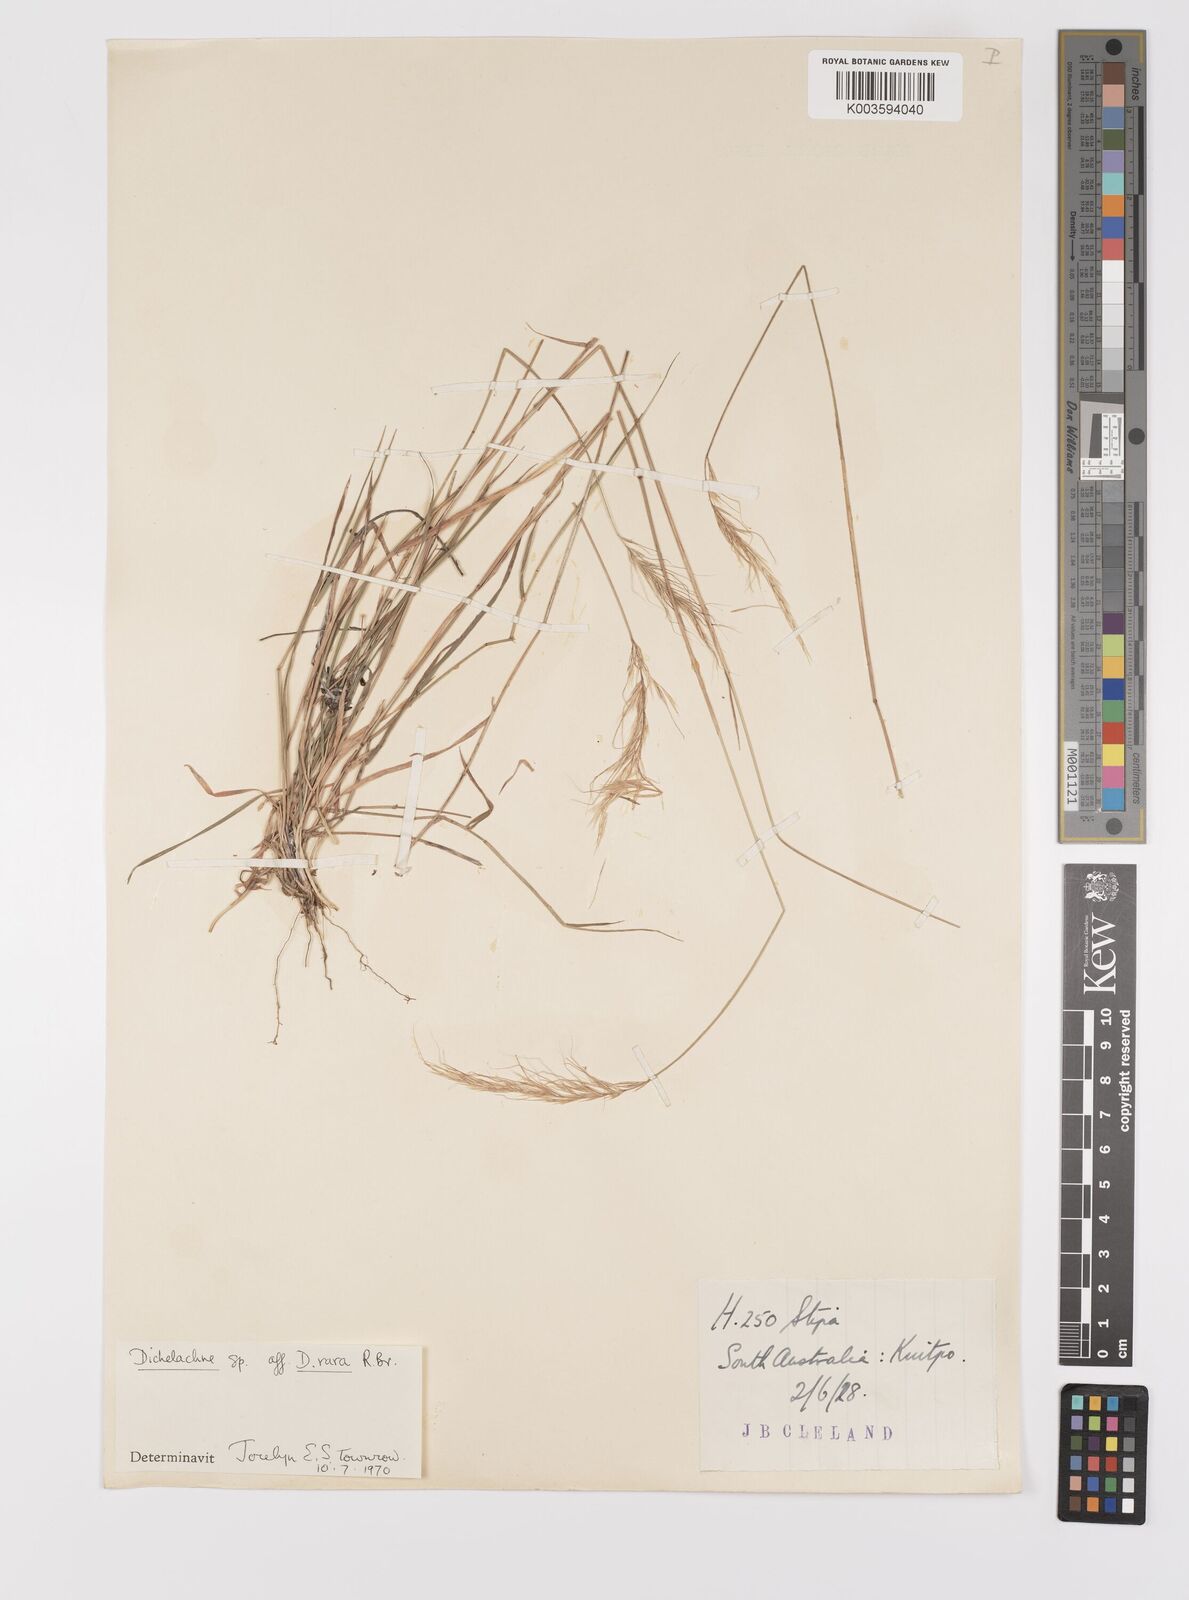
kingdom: Plantae
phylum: Tracheophyta
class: Liliopsida
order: Poales
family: Poaceae
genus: Dichelachne
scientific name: Dichelachne rara
